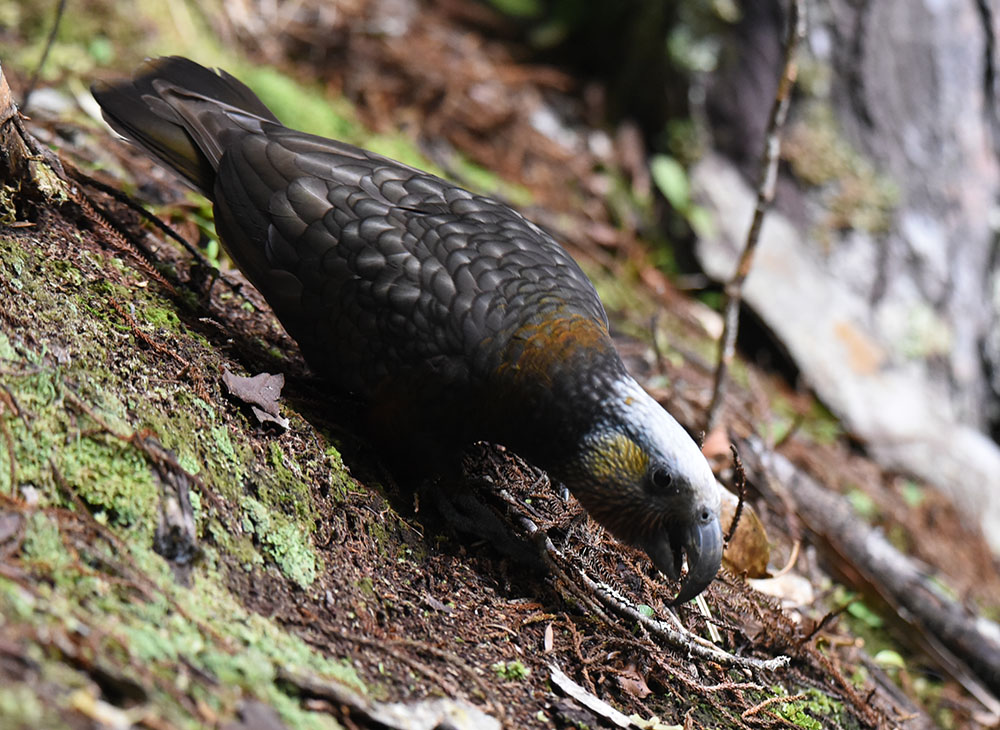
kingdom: Animalia
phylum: Chordata
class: Aves
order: Psittaciformes
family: Psittacidae
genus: Nestor
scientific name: Nestor meridionalis
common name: New zealand kaka
